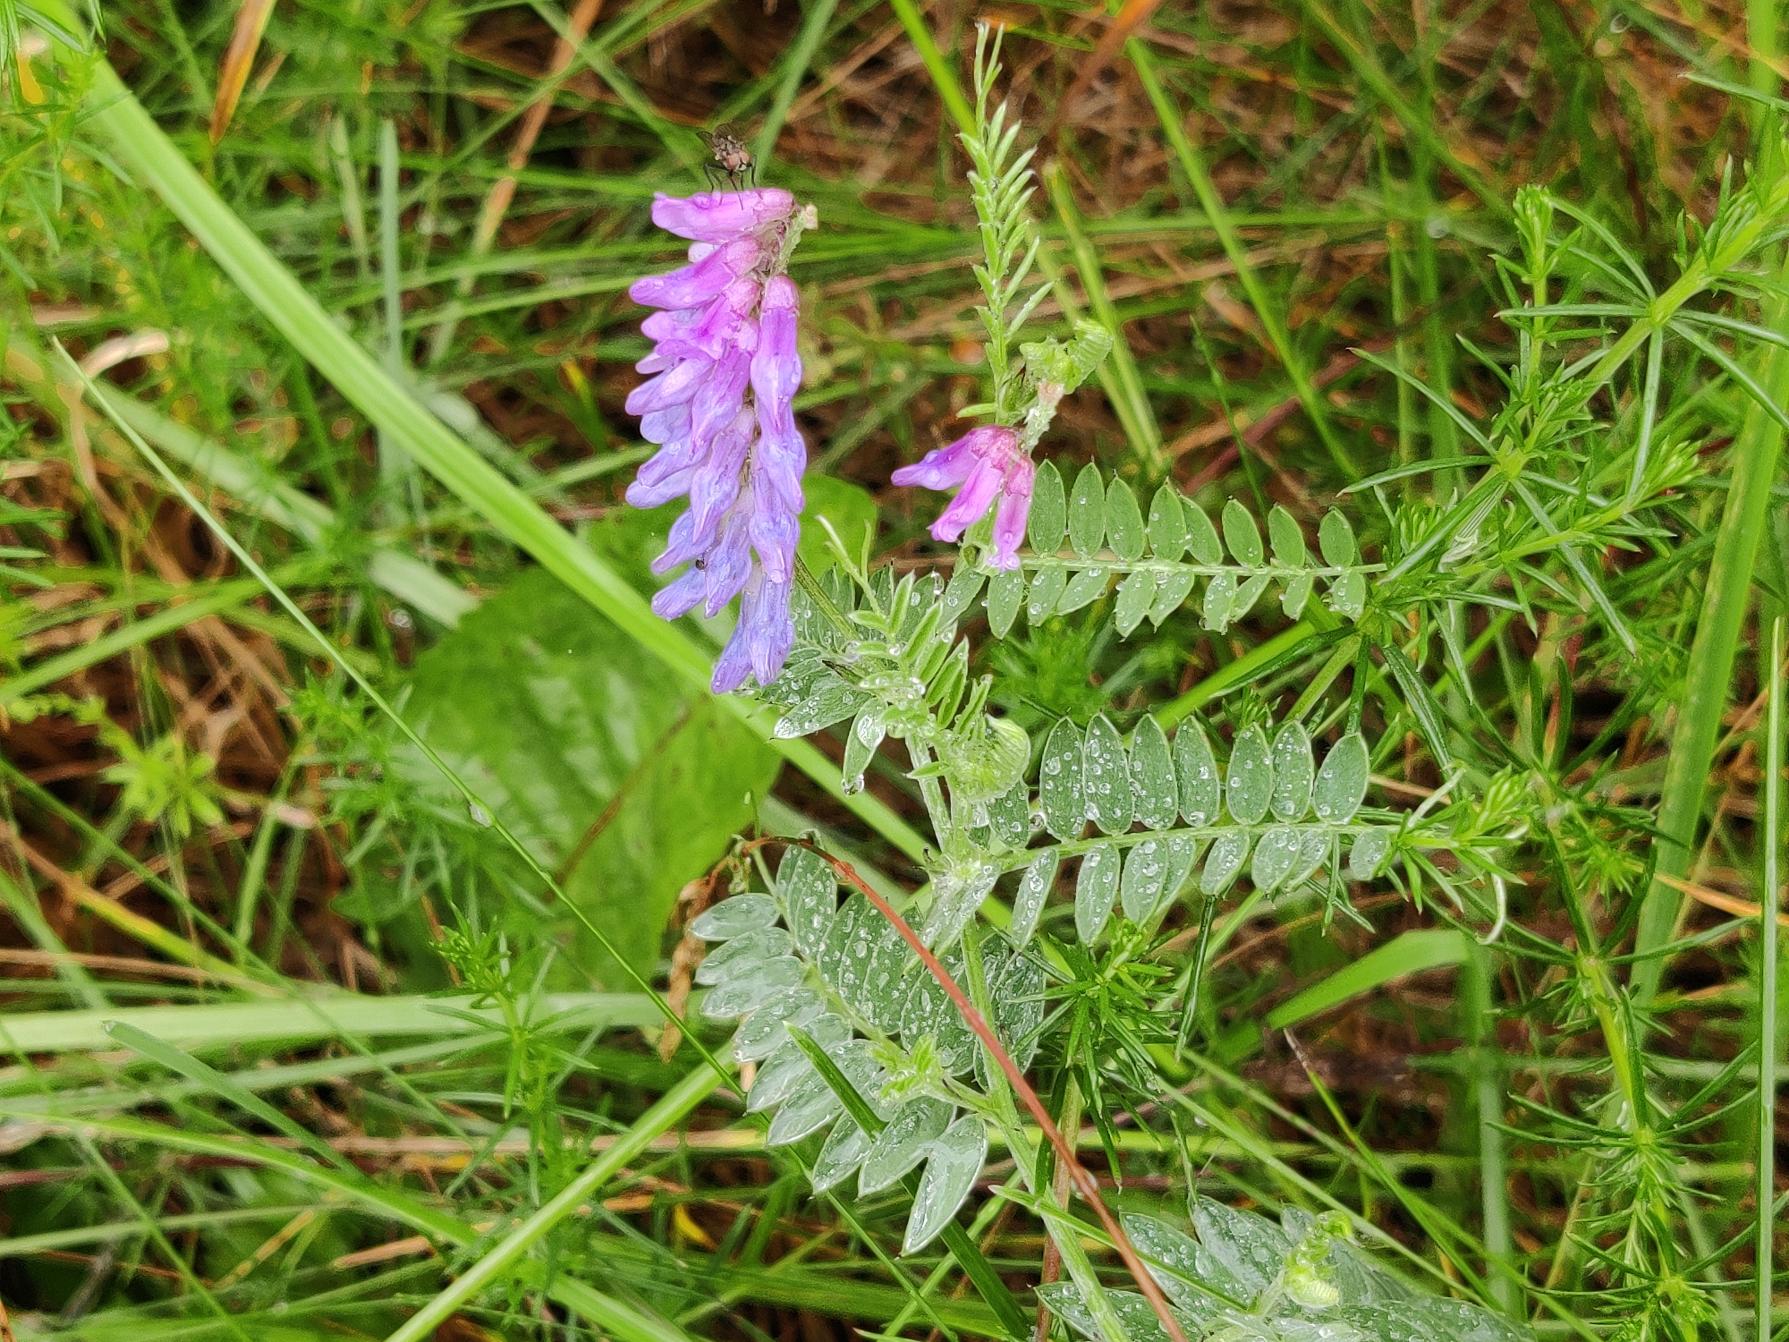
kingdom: Plantae
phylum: Tracheophyta
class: Magnoliopsida
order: Fabales
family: Fabaceae
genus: Vicia
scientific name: Vicia cracca
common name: Muse-vikke
